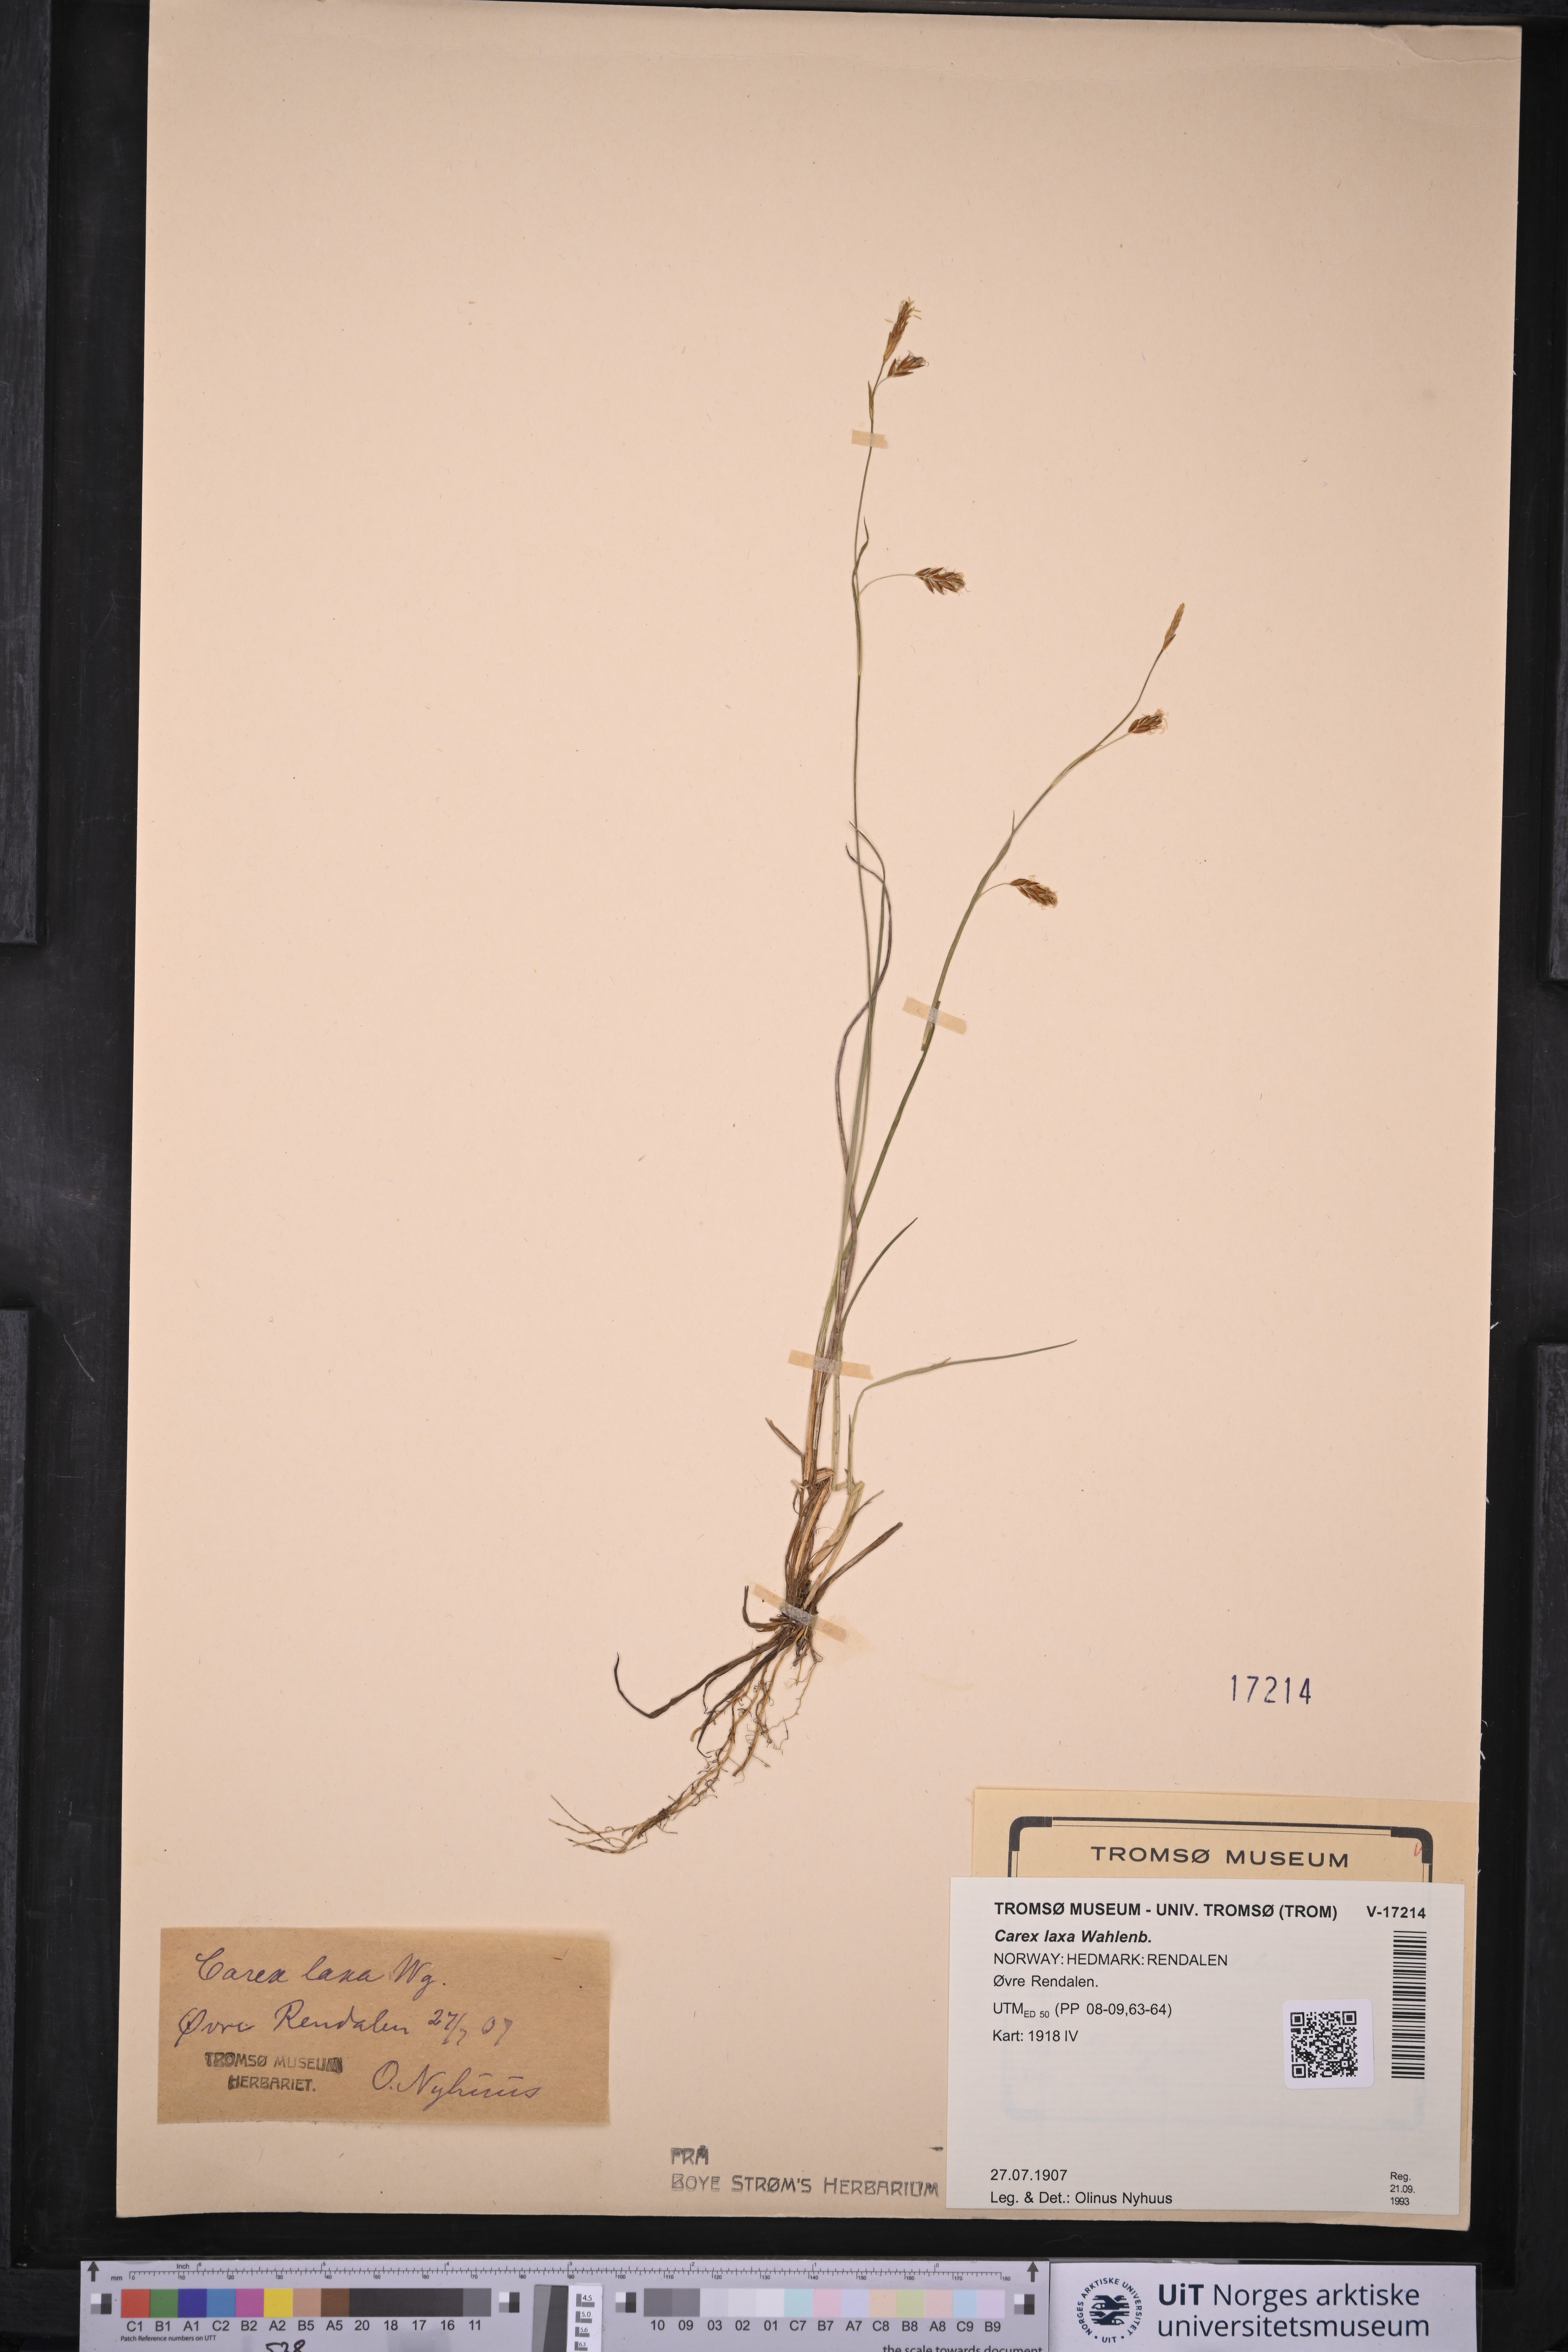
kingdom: Plantae
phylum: Tracheophyta
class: Liliopsida
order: Poales
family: Cyperaceae
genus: Carex
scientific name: Carex laxa
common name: Weak sedge
